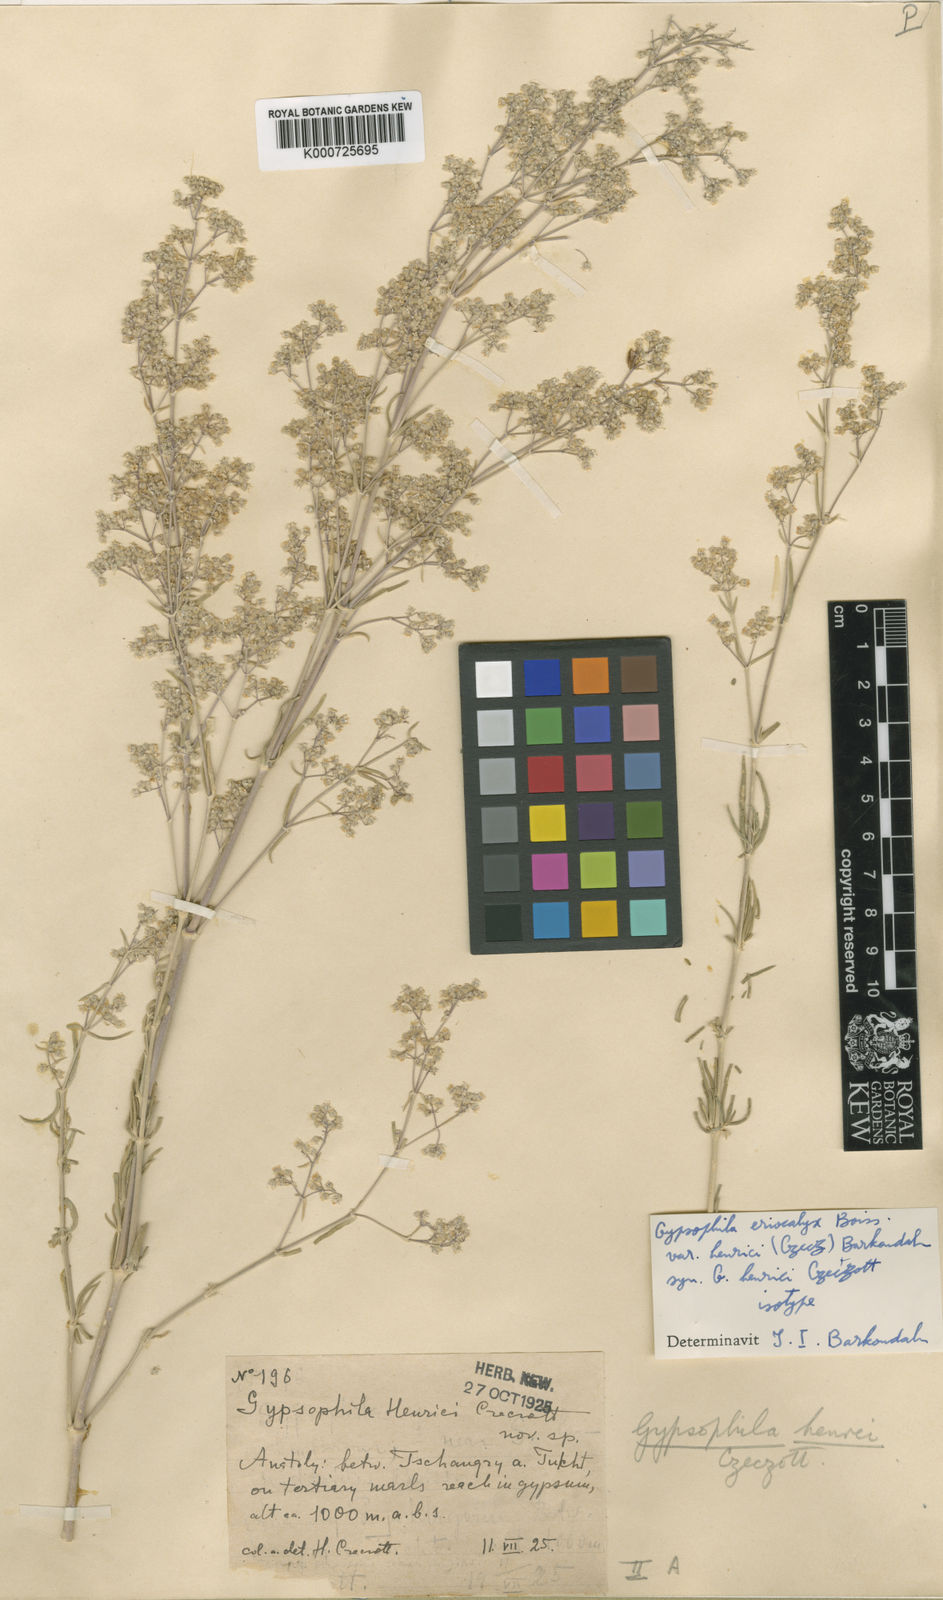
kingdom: Plantae
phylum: Tracheophyta
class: Magnoliopsida
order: Caryophyllales
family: Caryophyllaceae
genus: Gypsophila
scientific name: Gypsophila eriocalyx
